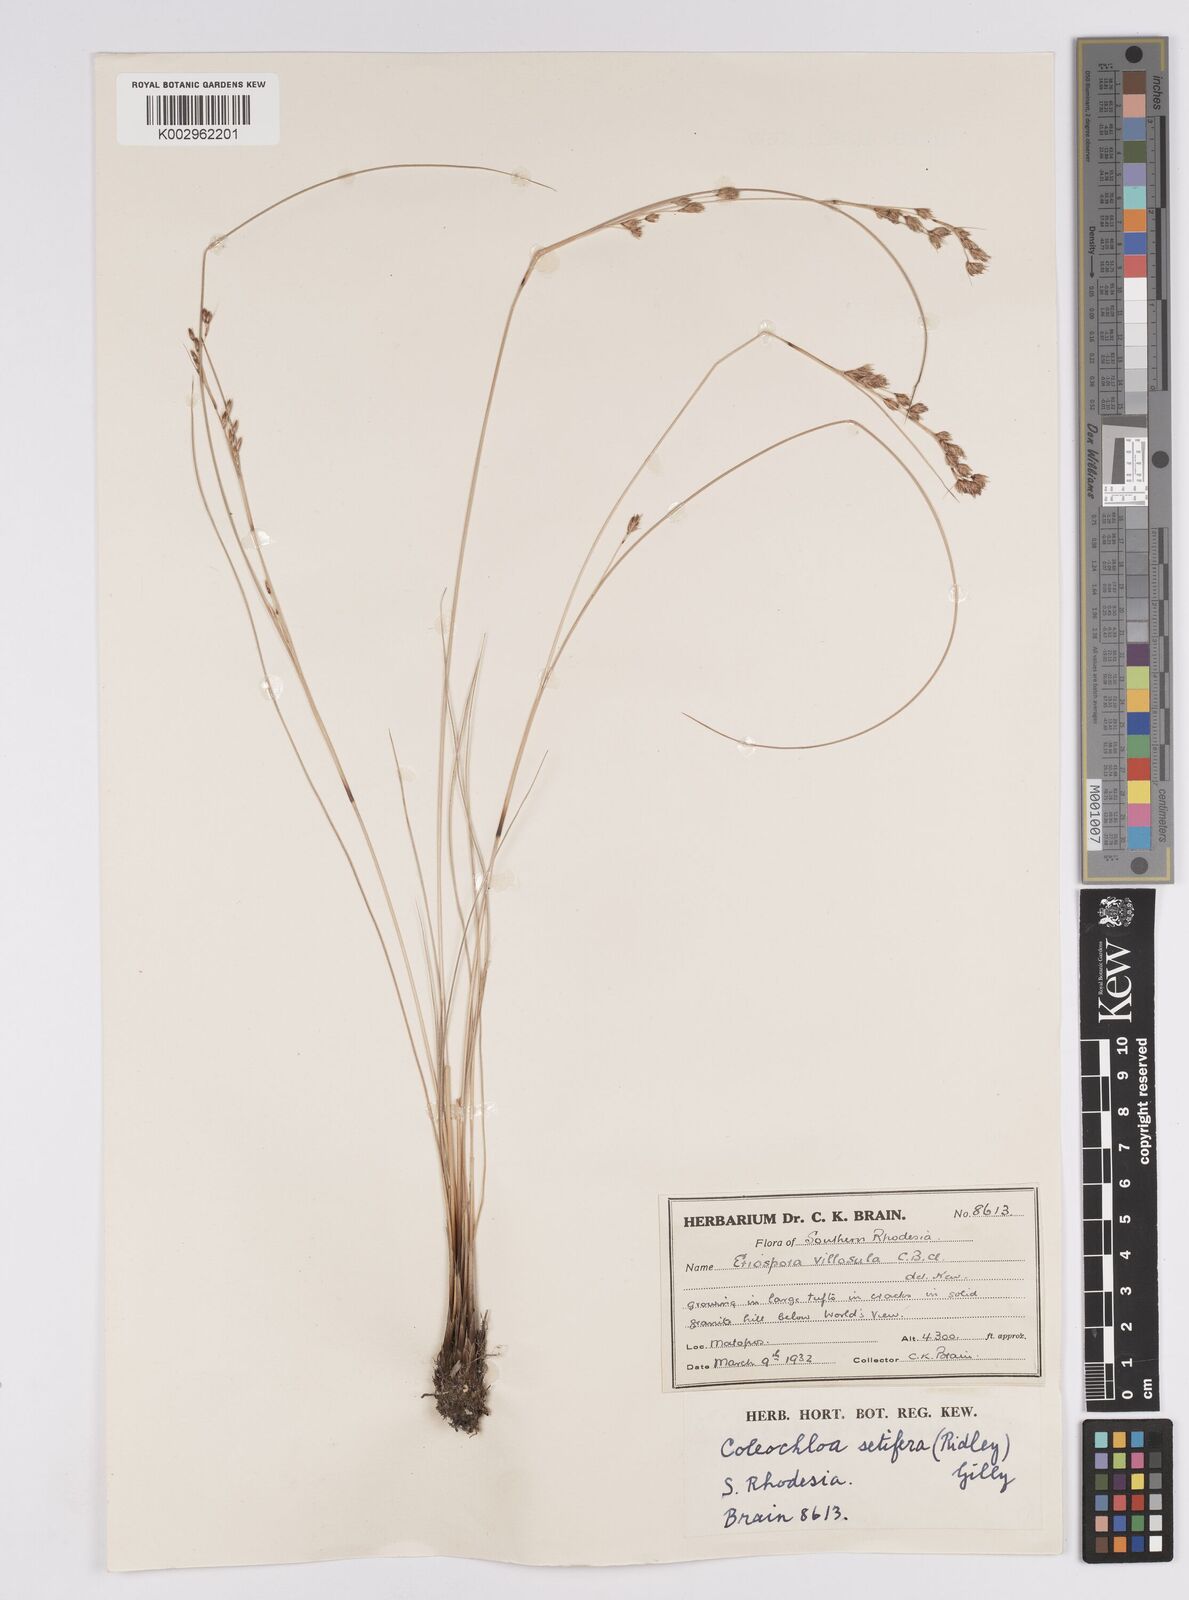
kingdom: Plantae
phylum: Tracheophyta
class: Liliopsida
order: Poales
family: Cyperaceae
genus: Coleochloa
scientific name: Coleochloa setifera
